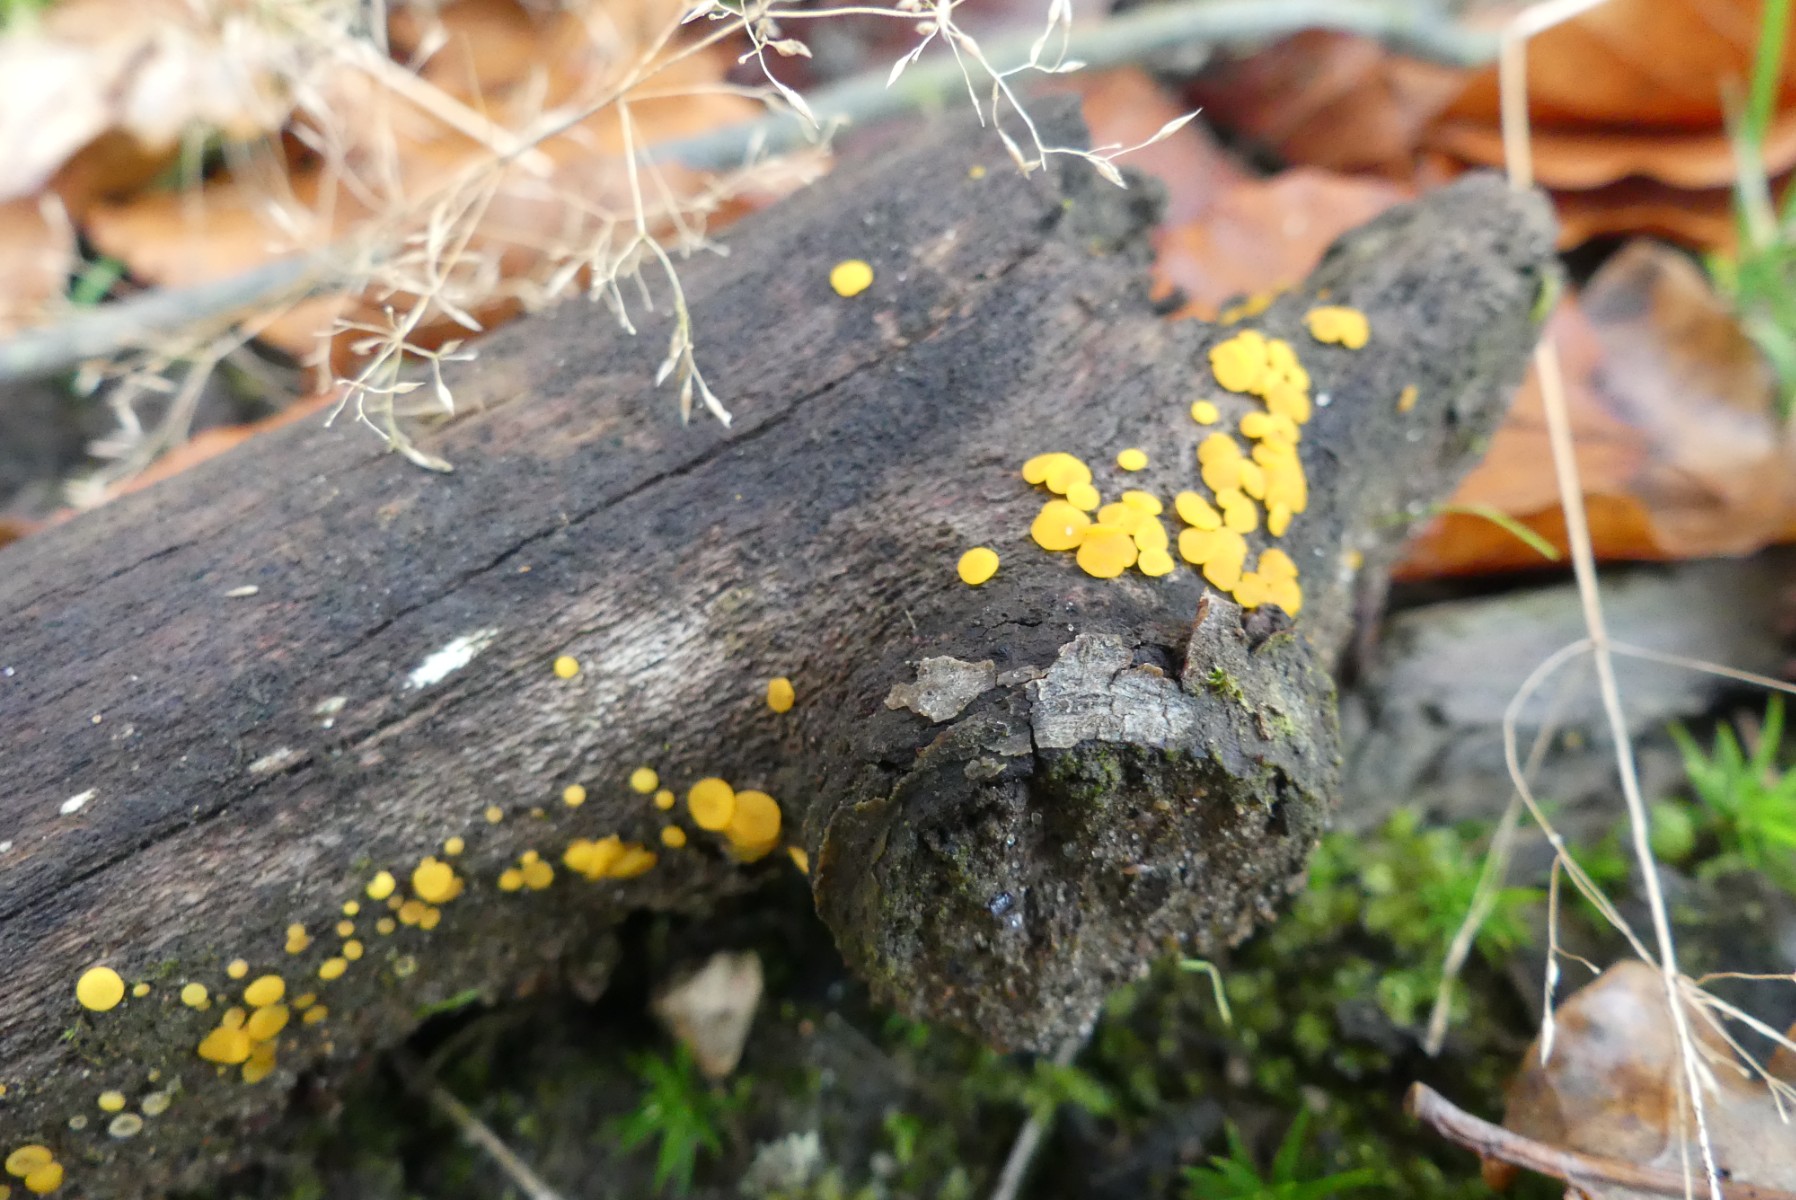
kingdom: Fungi
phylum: Ascomycota
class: Leotiomycetes
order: Helotiales
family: Pezizellaceae
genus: Calycina
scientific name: Calycina citrina
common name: almindelig gulskive
